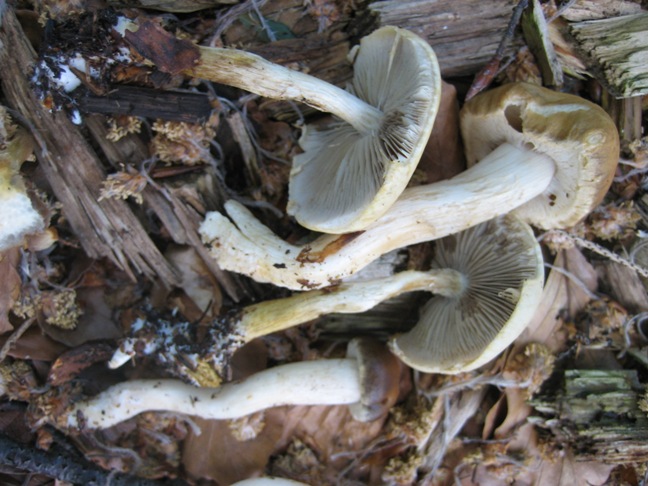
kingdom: Fungi
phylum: Basidiomycota
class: Agaricomycetes
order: Agaricales
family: Strophariaceae
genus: Agrocybe
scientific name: Agrocybe praecox
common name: tidlig agerhat
